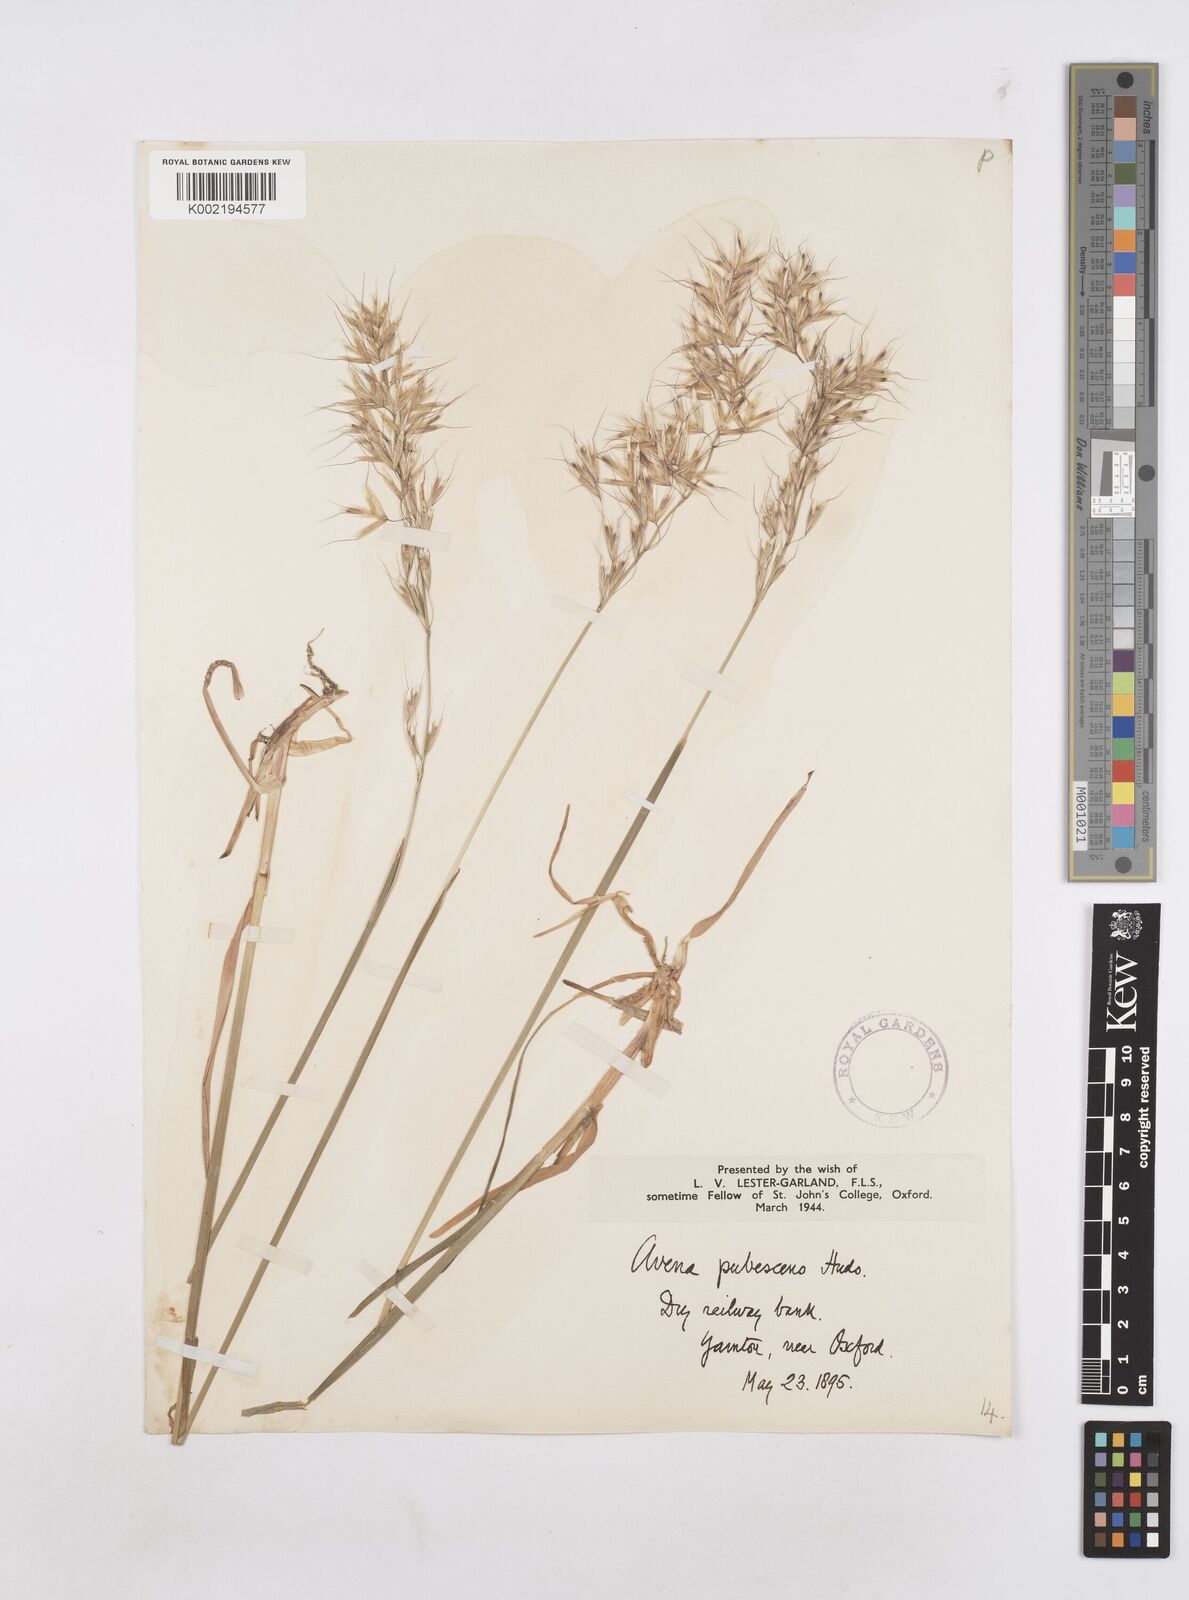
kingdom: Plantae
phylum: Tracheophyta
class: Liliopsida
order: Poales
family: Poaceae
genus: Avenula
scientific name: Avenula pubescens
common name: Downy alpine oatgrass
